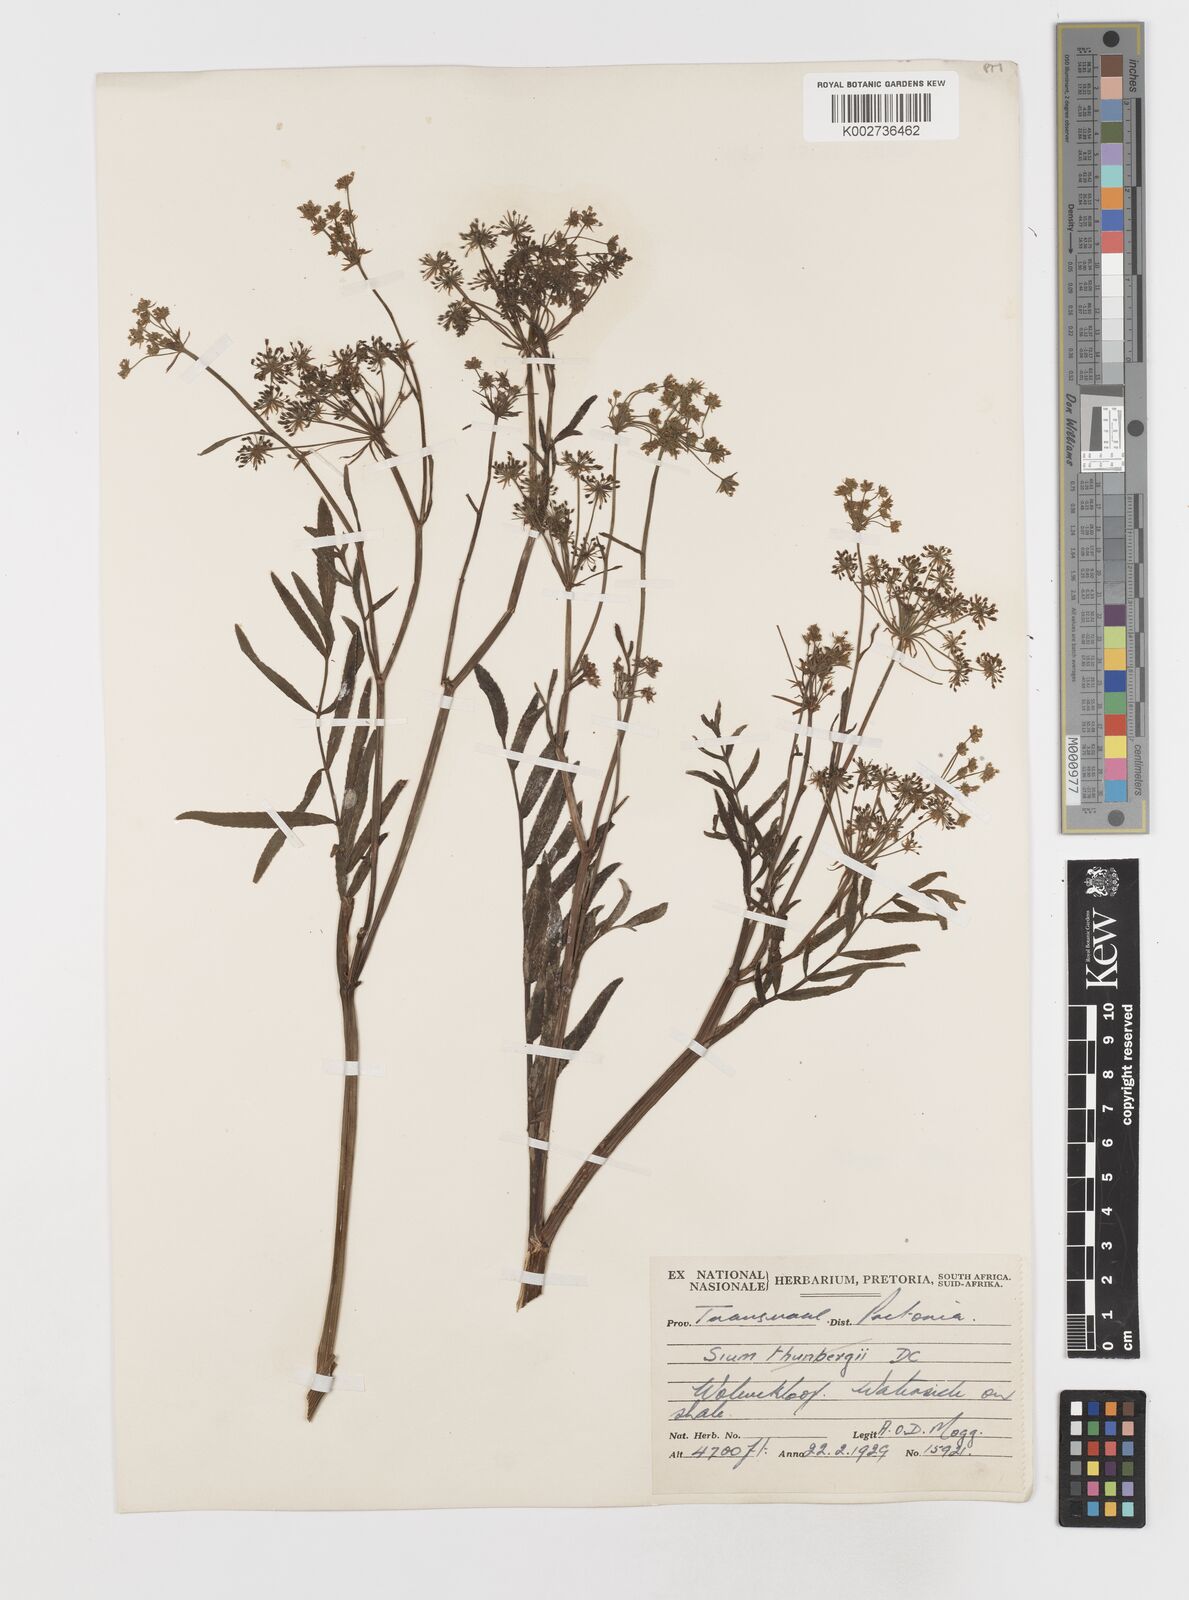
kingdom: Plantae
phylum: Tracheophyta
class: Magnoliopsida
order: Apiales
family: Apiaceae
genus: Berula
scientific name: Berula repanda
